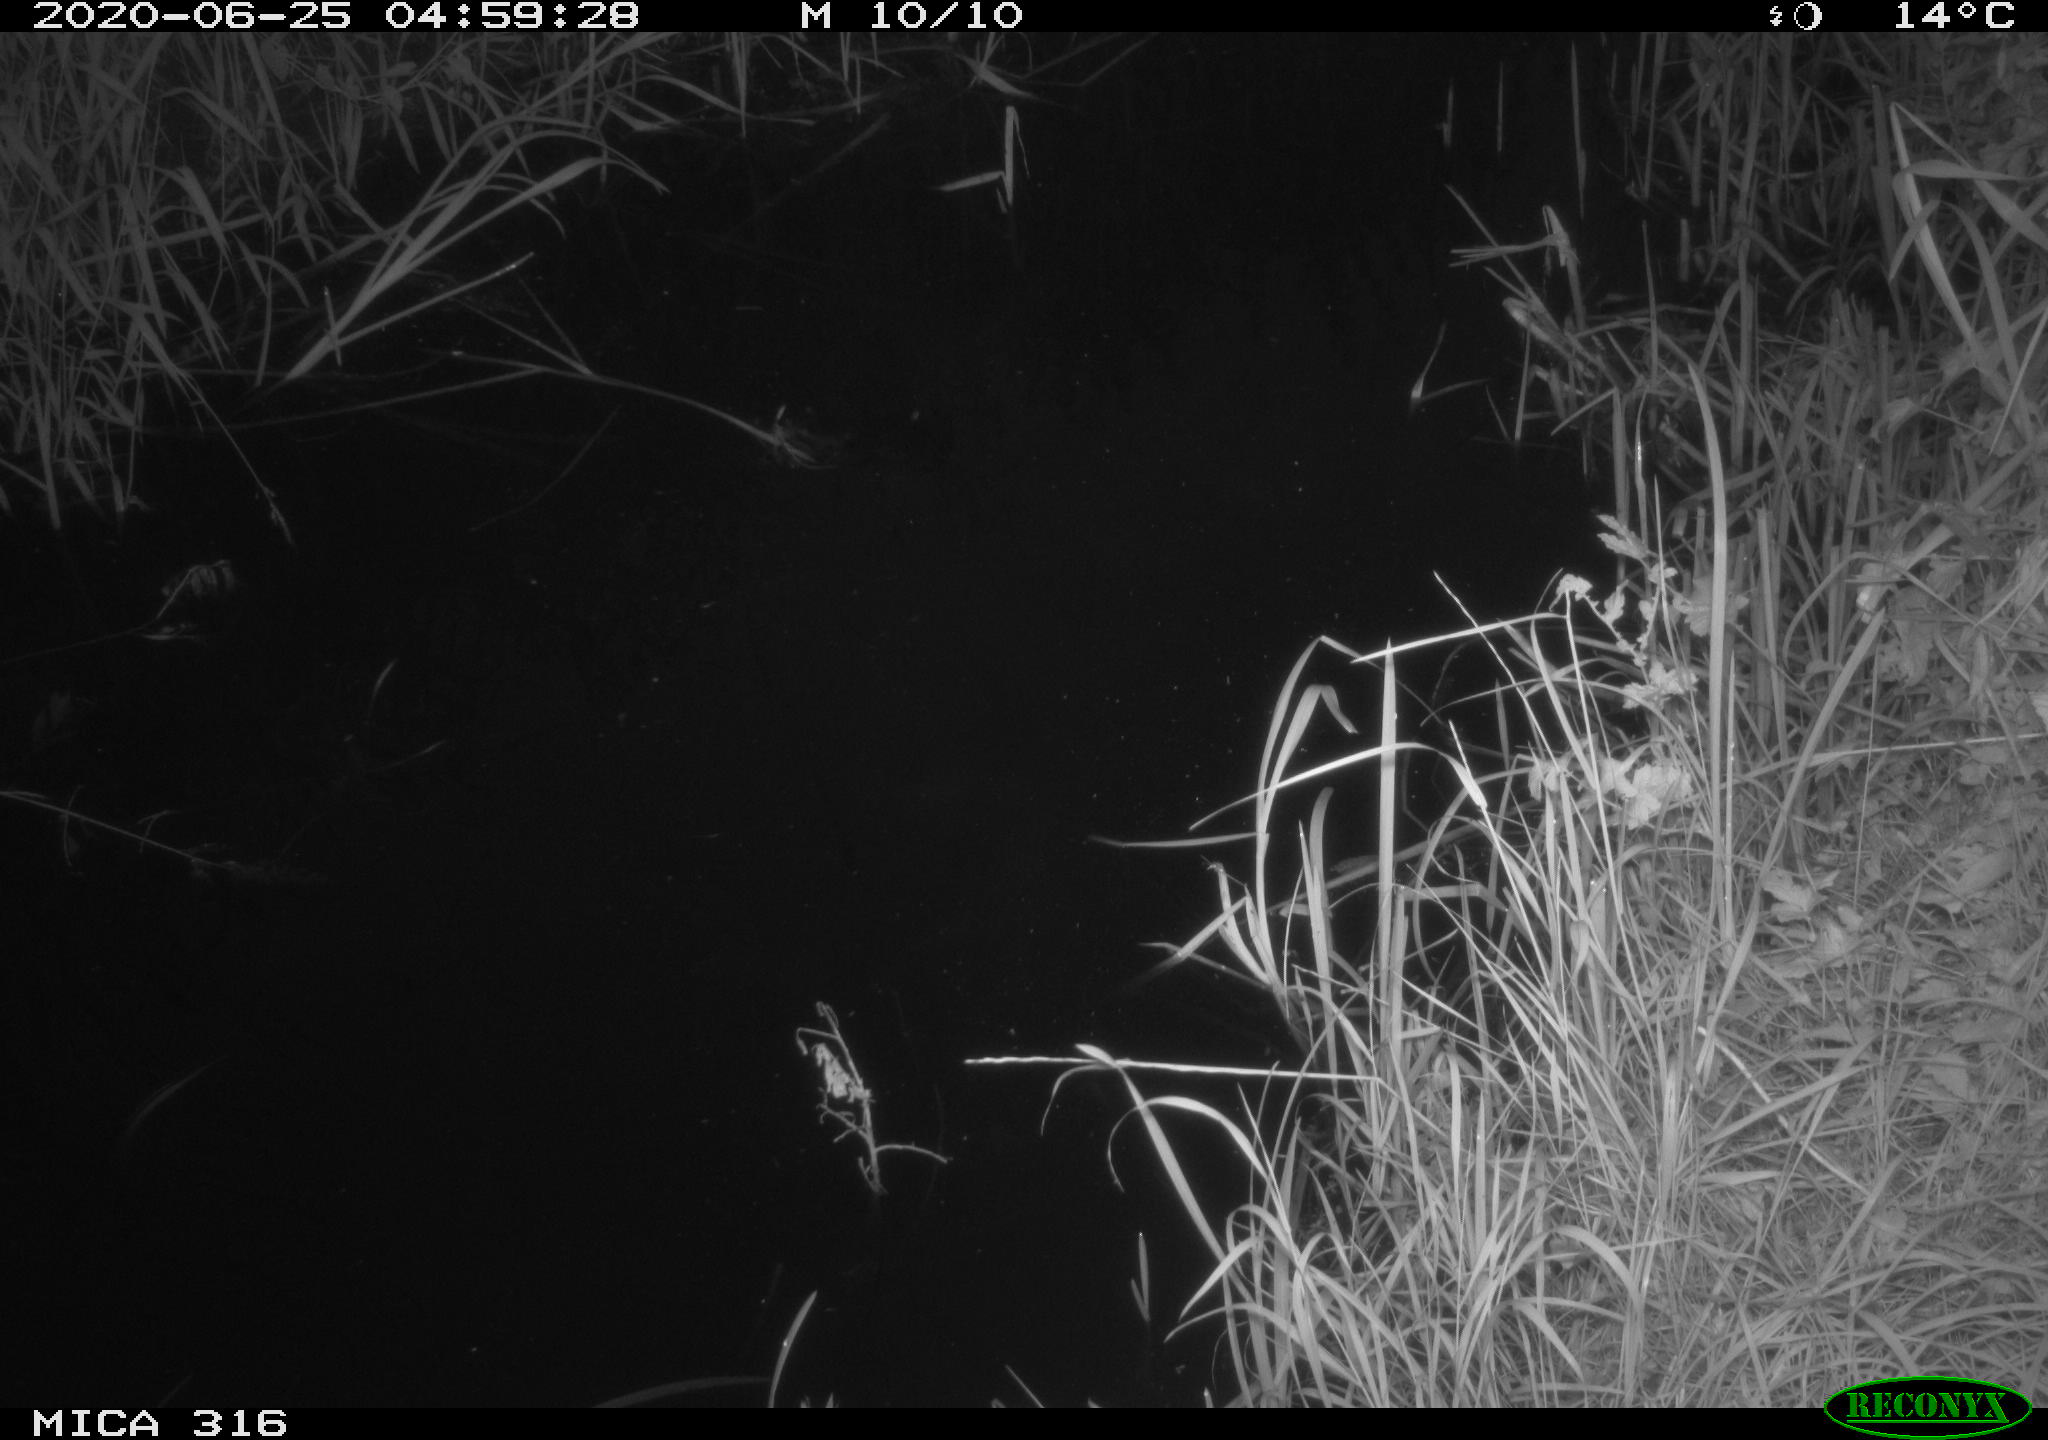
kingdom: Animalia
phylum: Chordata
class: Aves
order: Anseriformes
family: Anatidae
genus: Anas
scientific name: Anas platyrhynchos
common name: Mallard
